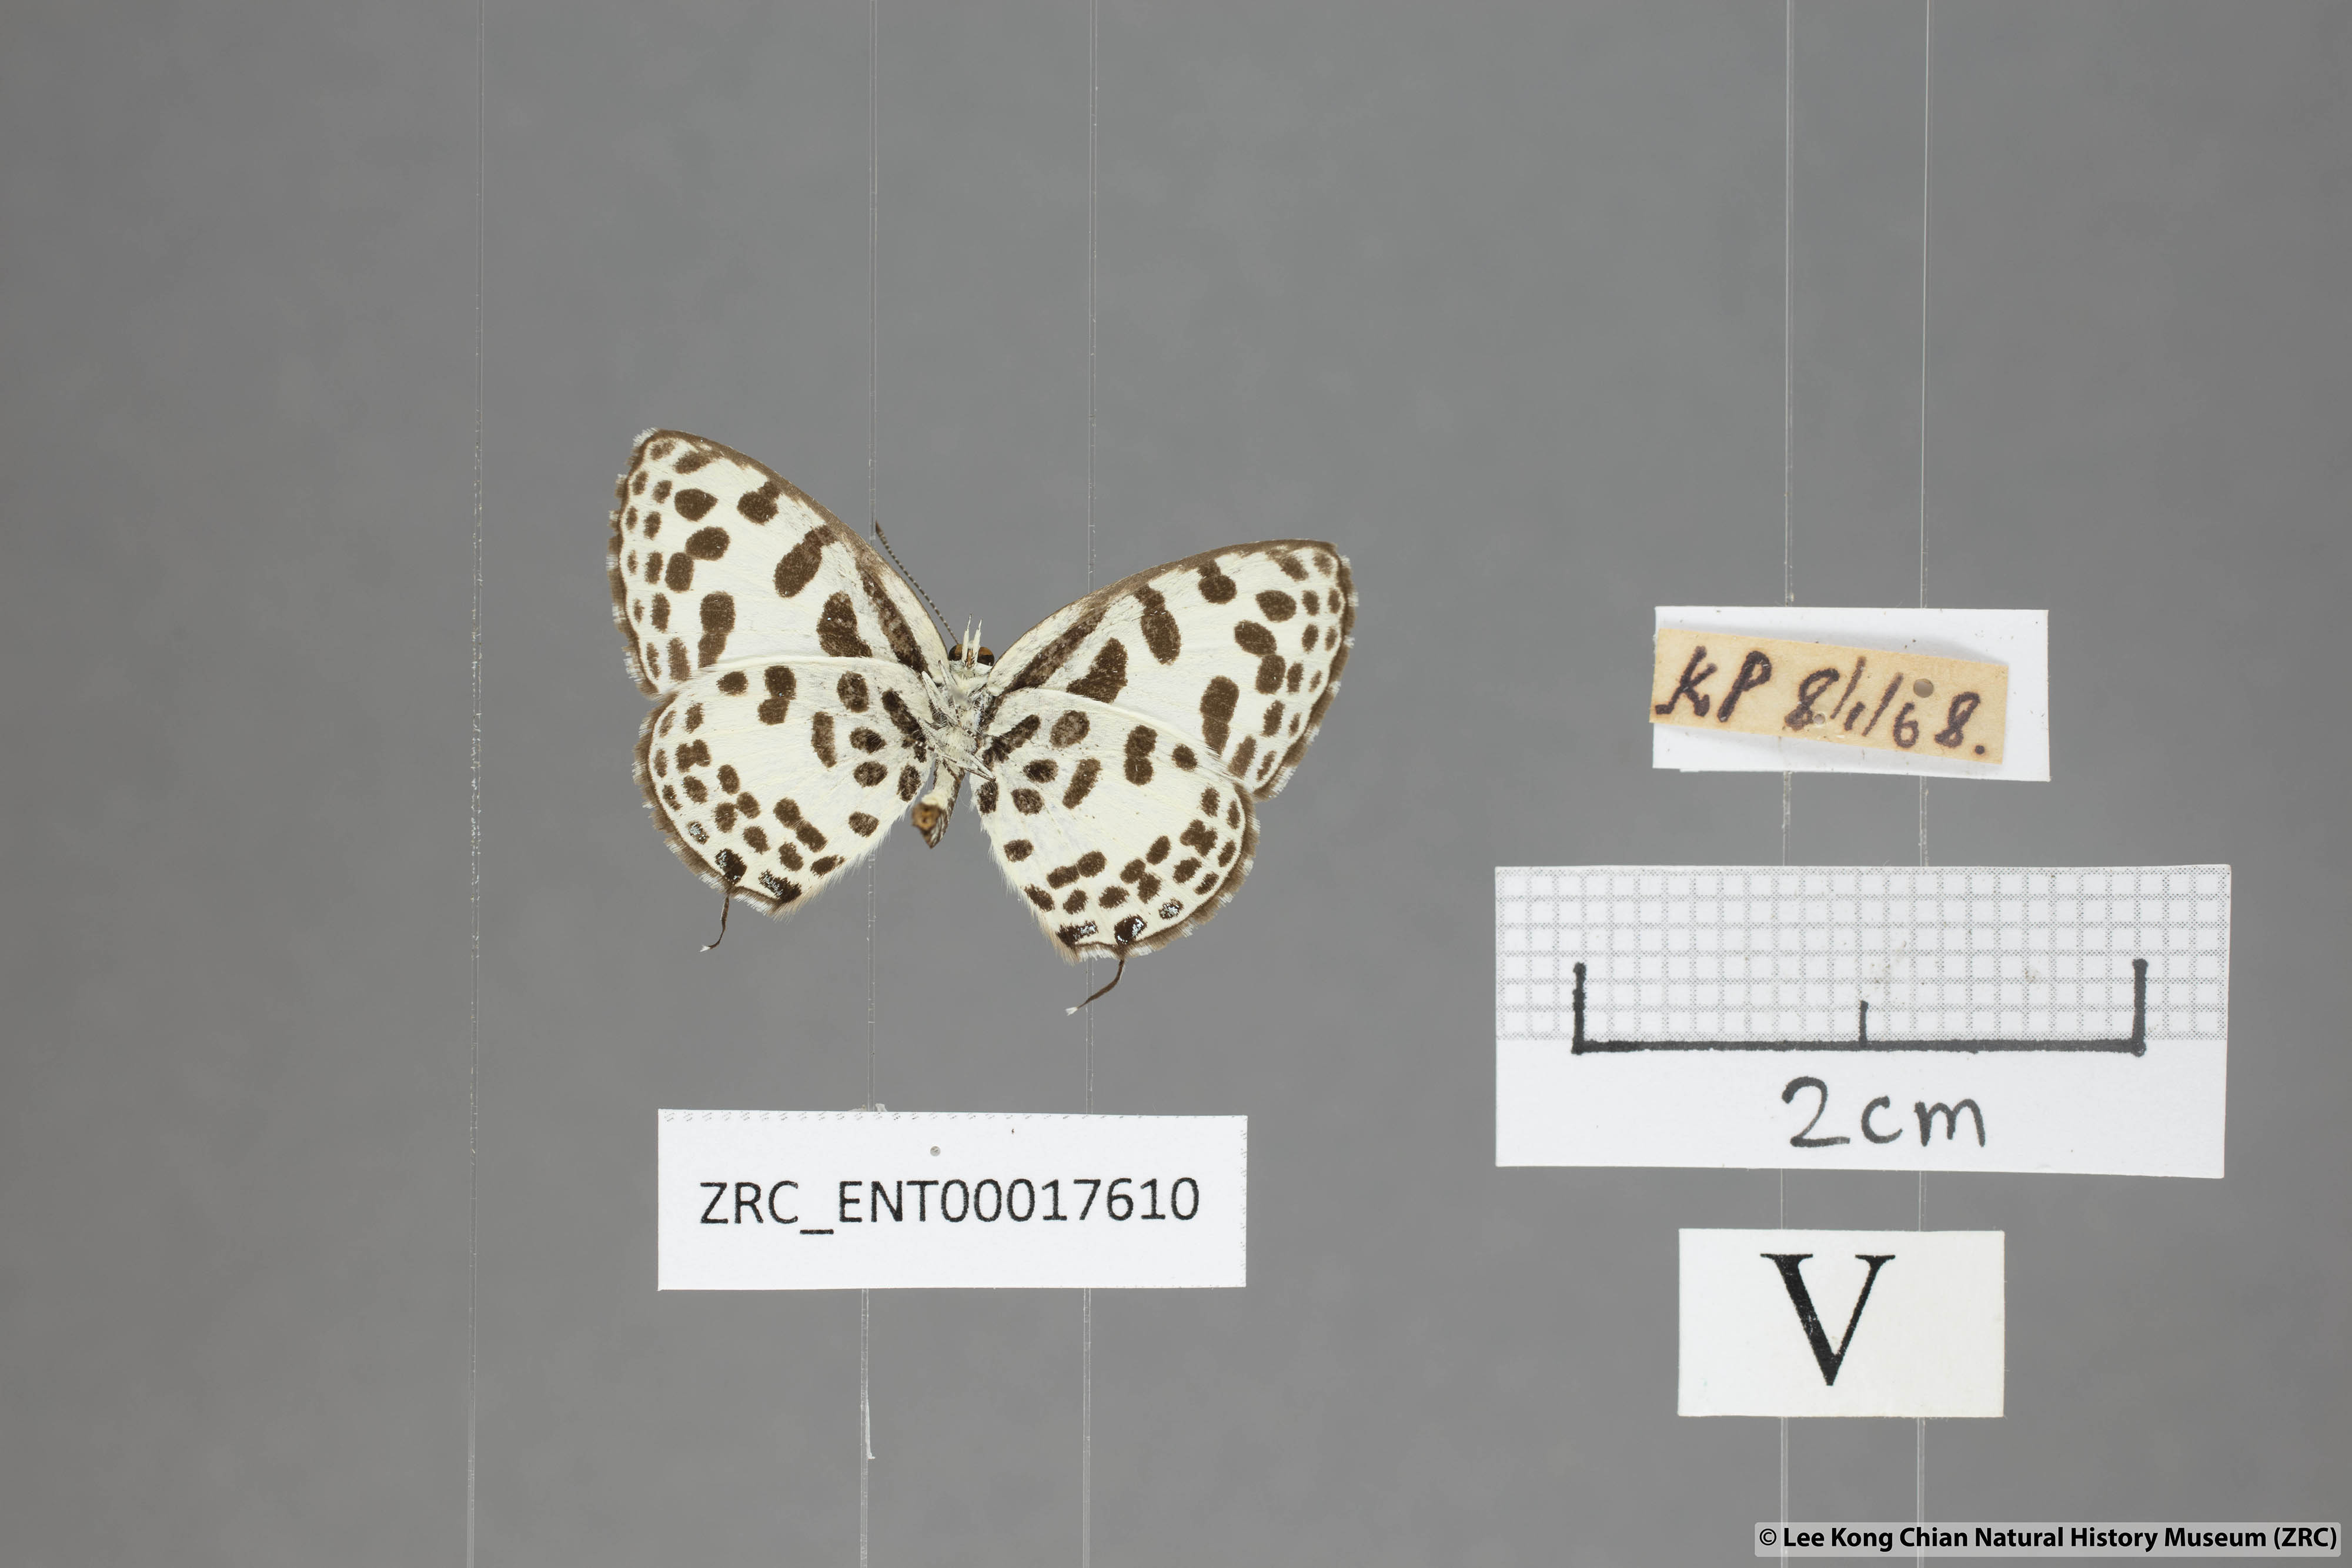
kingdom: Animalia
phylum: Arthropoda
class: Insecta
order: Lepidoptera
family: Lycaenidae
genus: Castalius
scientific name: Castalius rosimon
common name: Common pierrot
